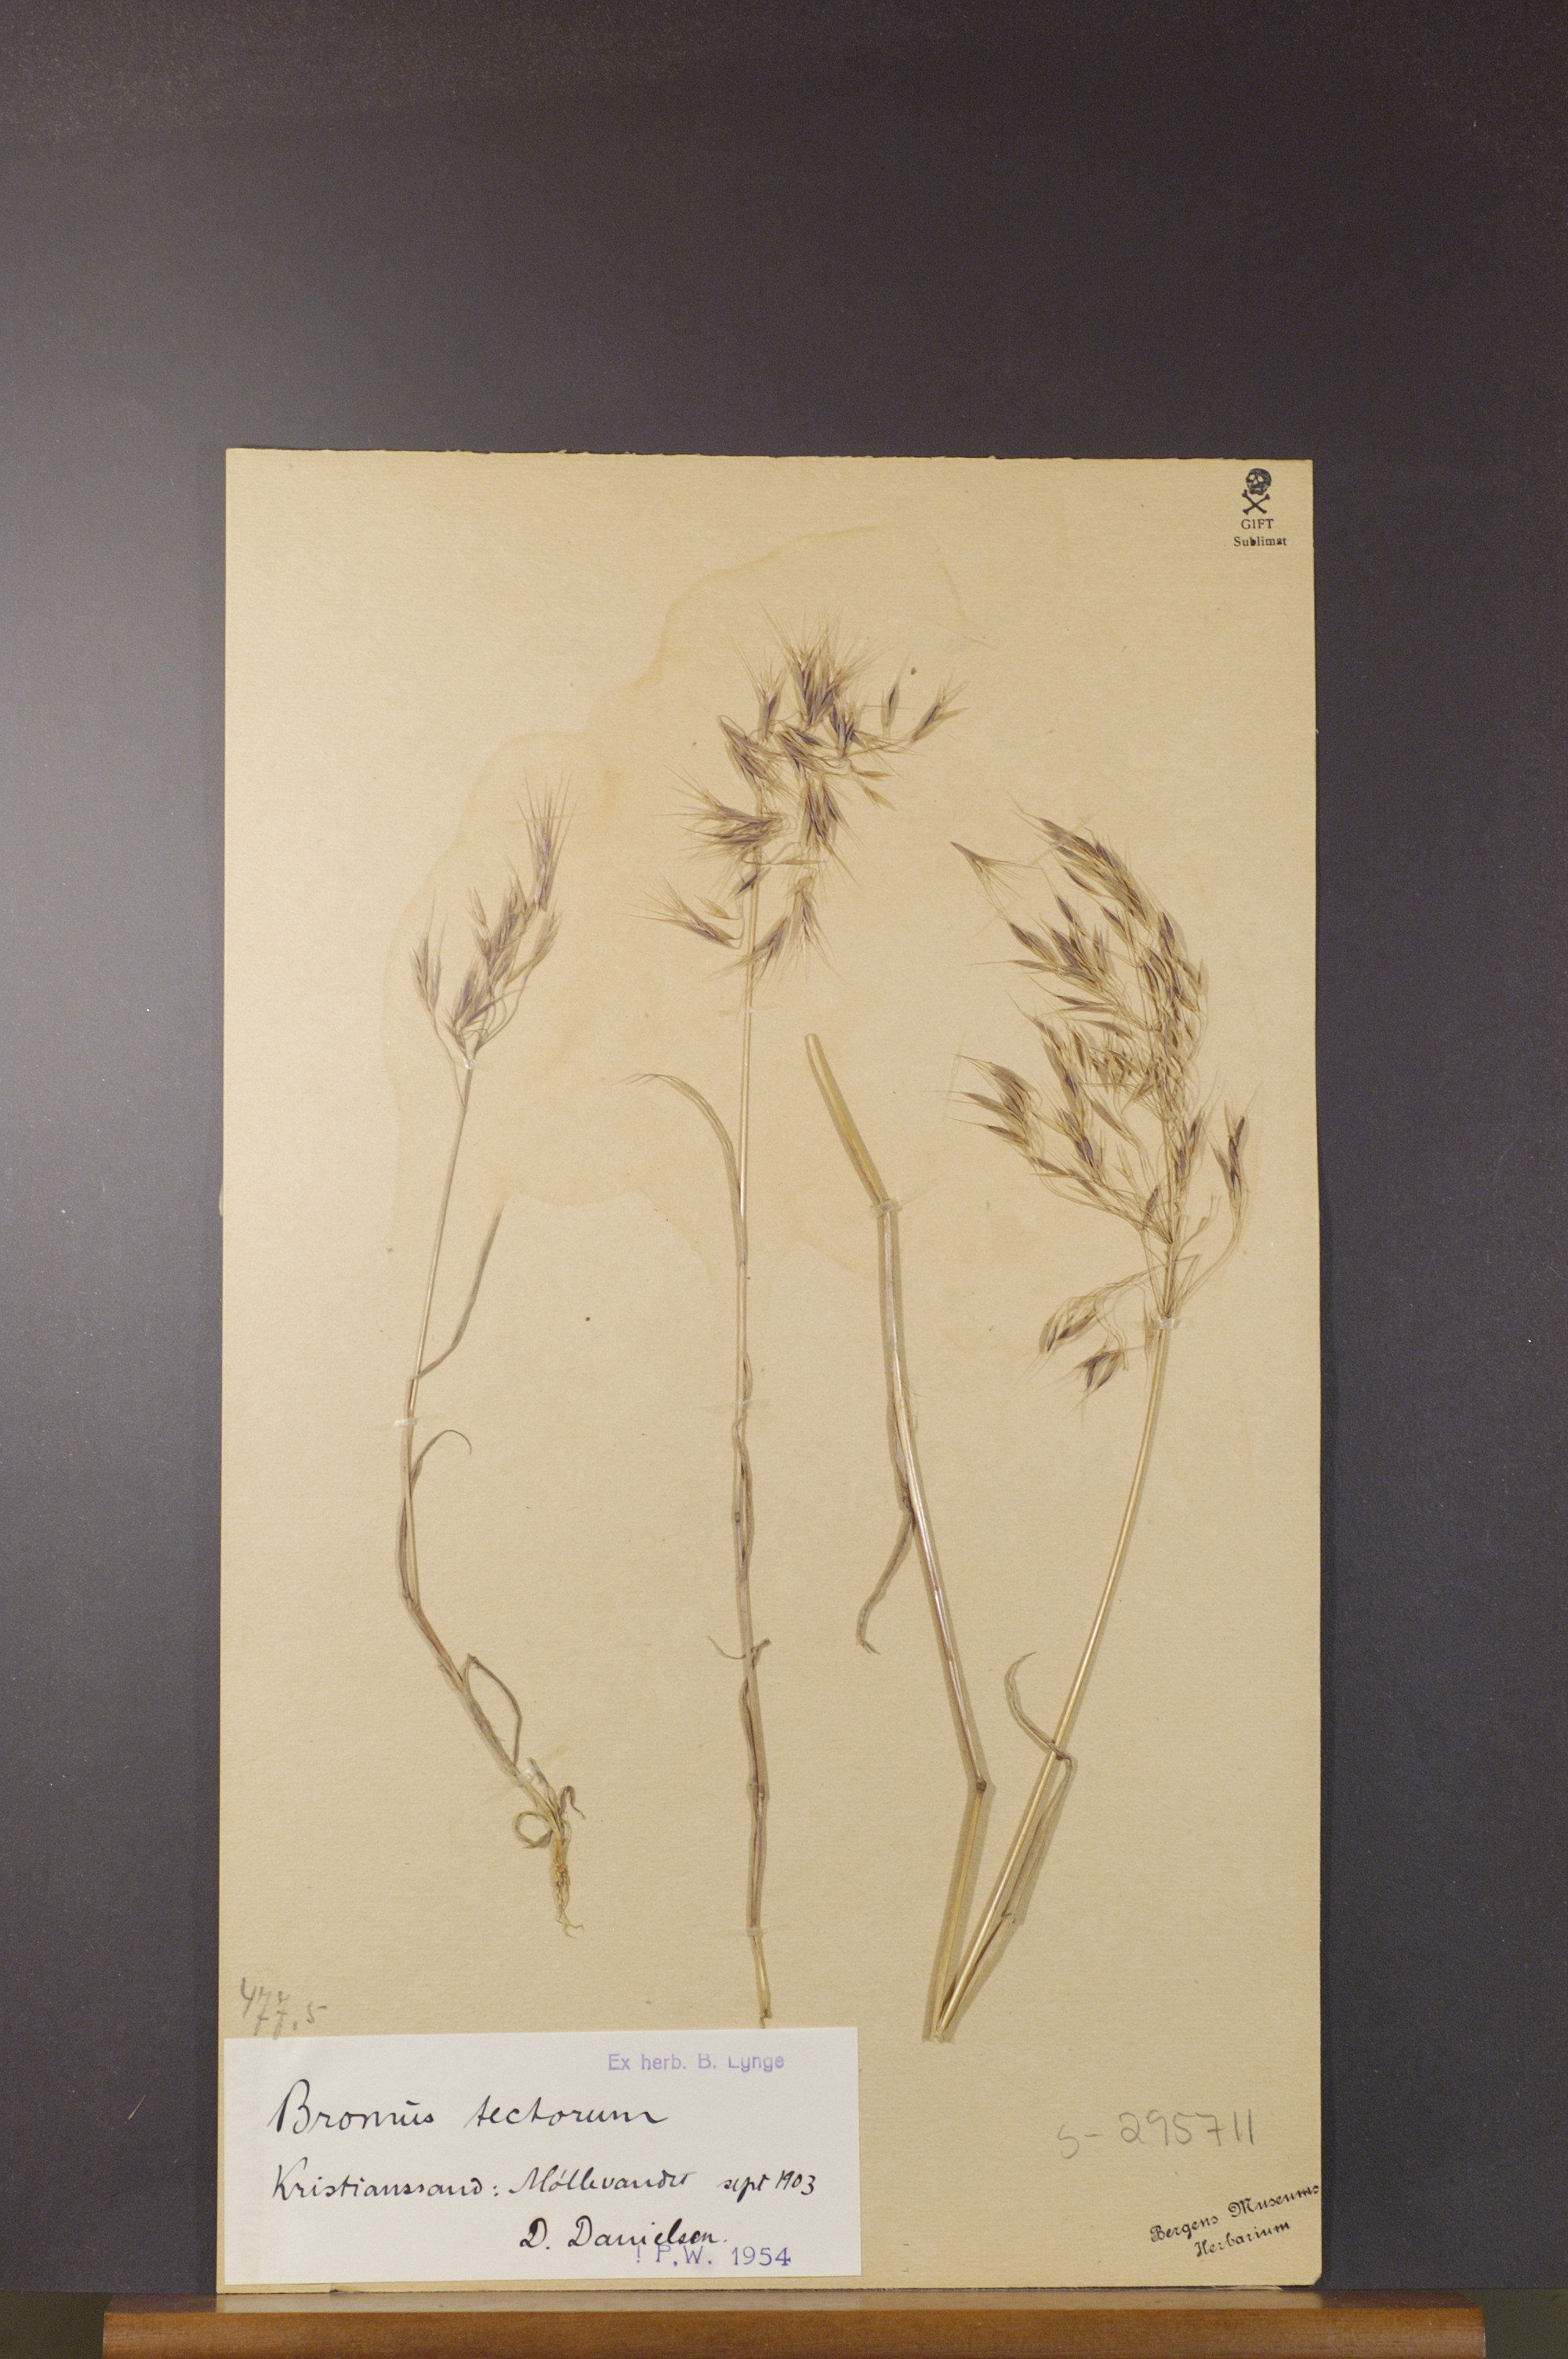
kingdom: Plantae
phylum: Tracheophyta
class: Liliopsida
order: Poales
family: Poaceae
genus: Bromus
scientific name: Bromus tectorum
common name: Cheatgrass
